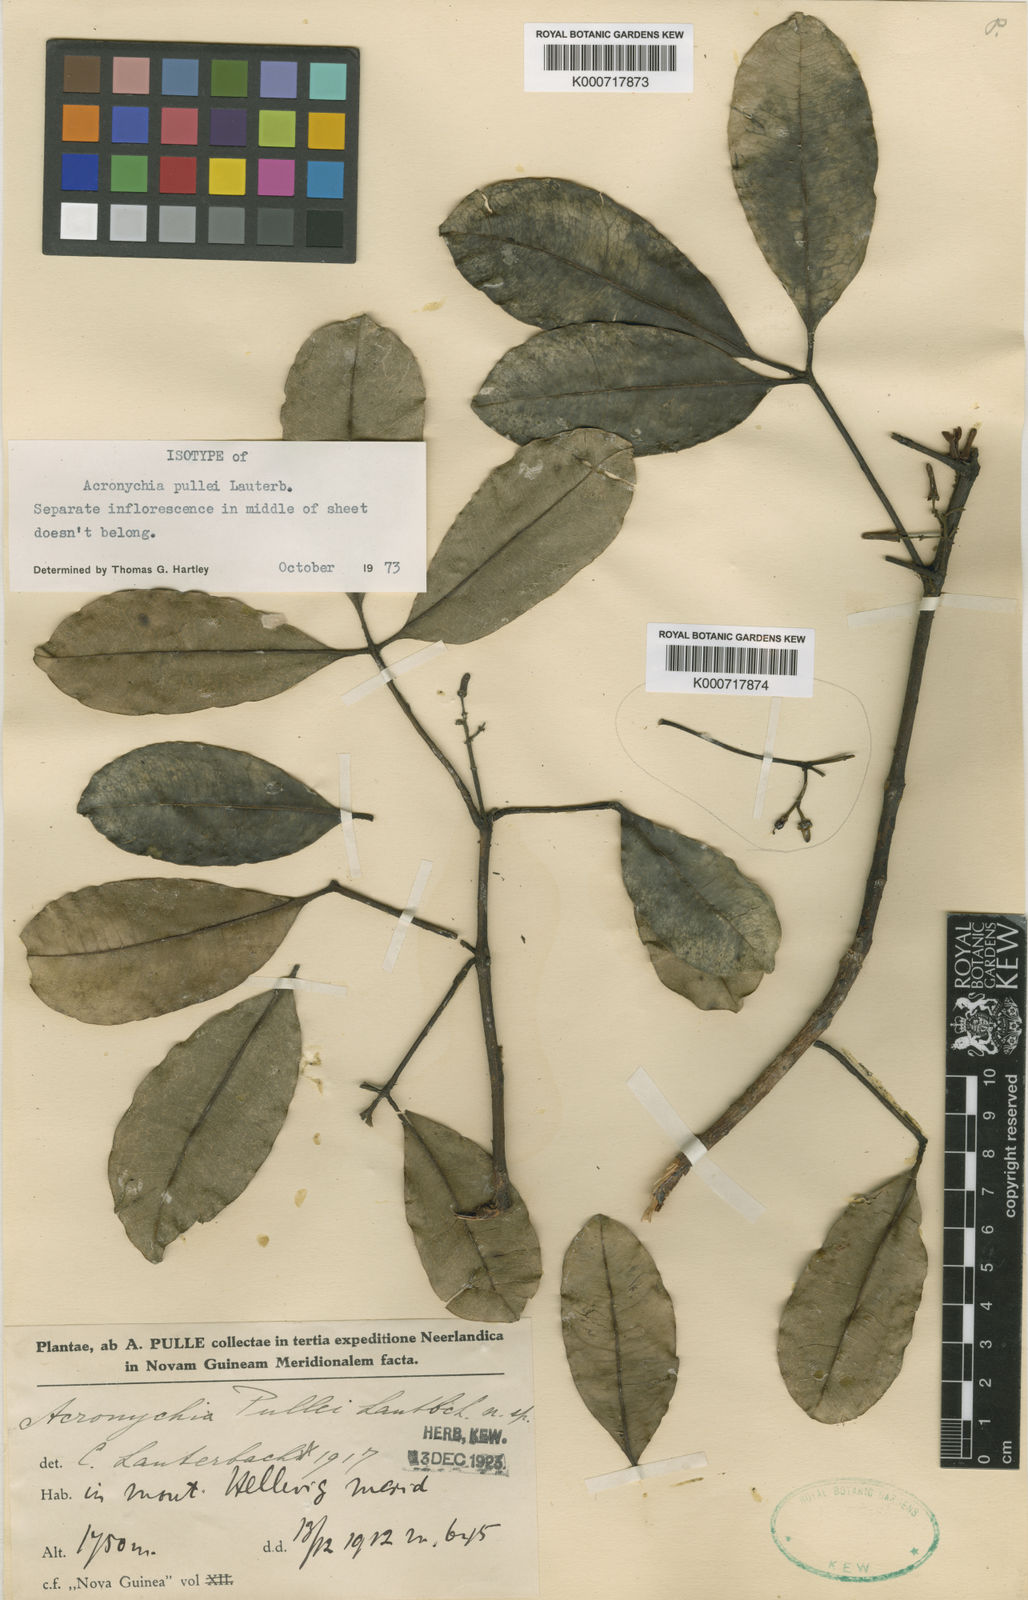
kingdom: Plantae
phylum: Tracheophyta
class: Magnoliopsida
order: Sapindales
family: Rutaceae
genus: Acronychia
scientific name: Acronychia pullei
